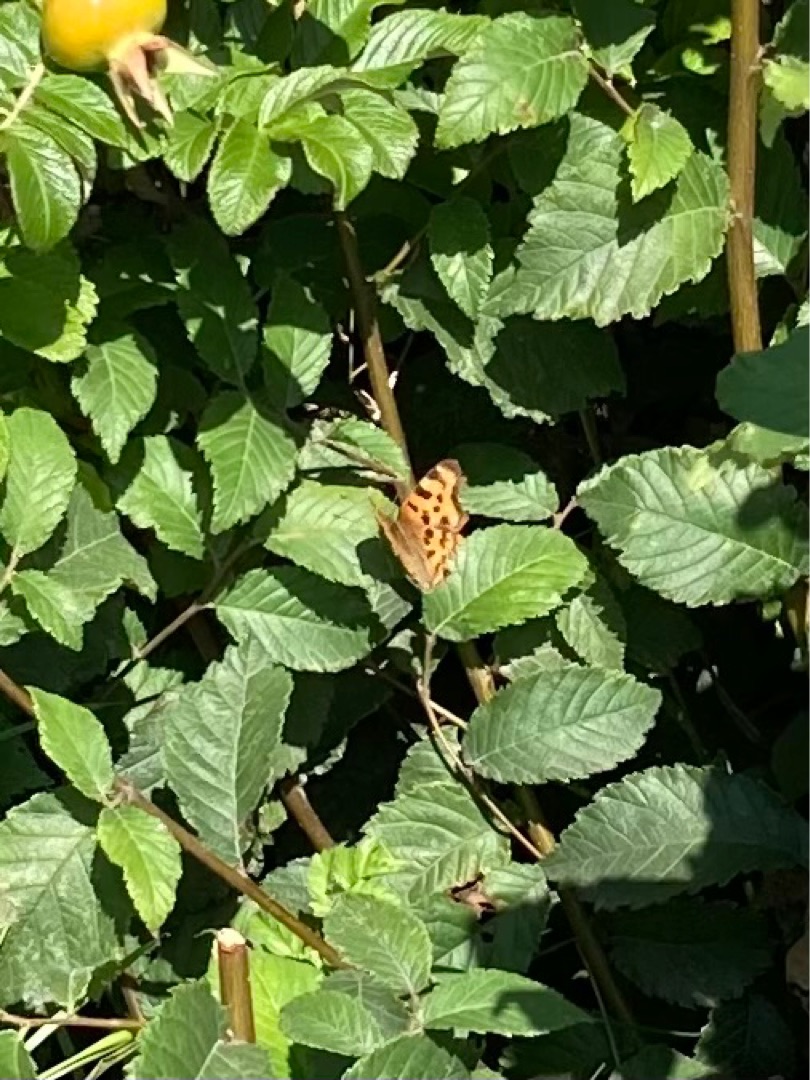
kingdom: Animalia
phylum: Arthropoda
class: Insecta
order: Lepidoptera
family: Nymphalidae
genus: Polygonia
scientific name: Polygonia c-album
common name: Det hvide C
